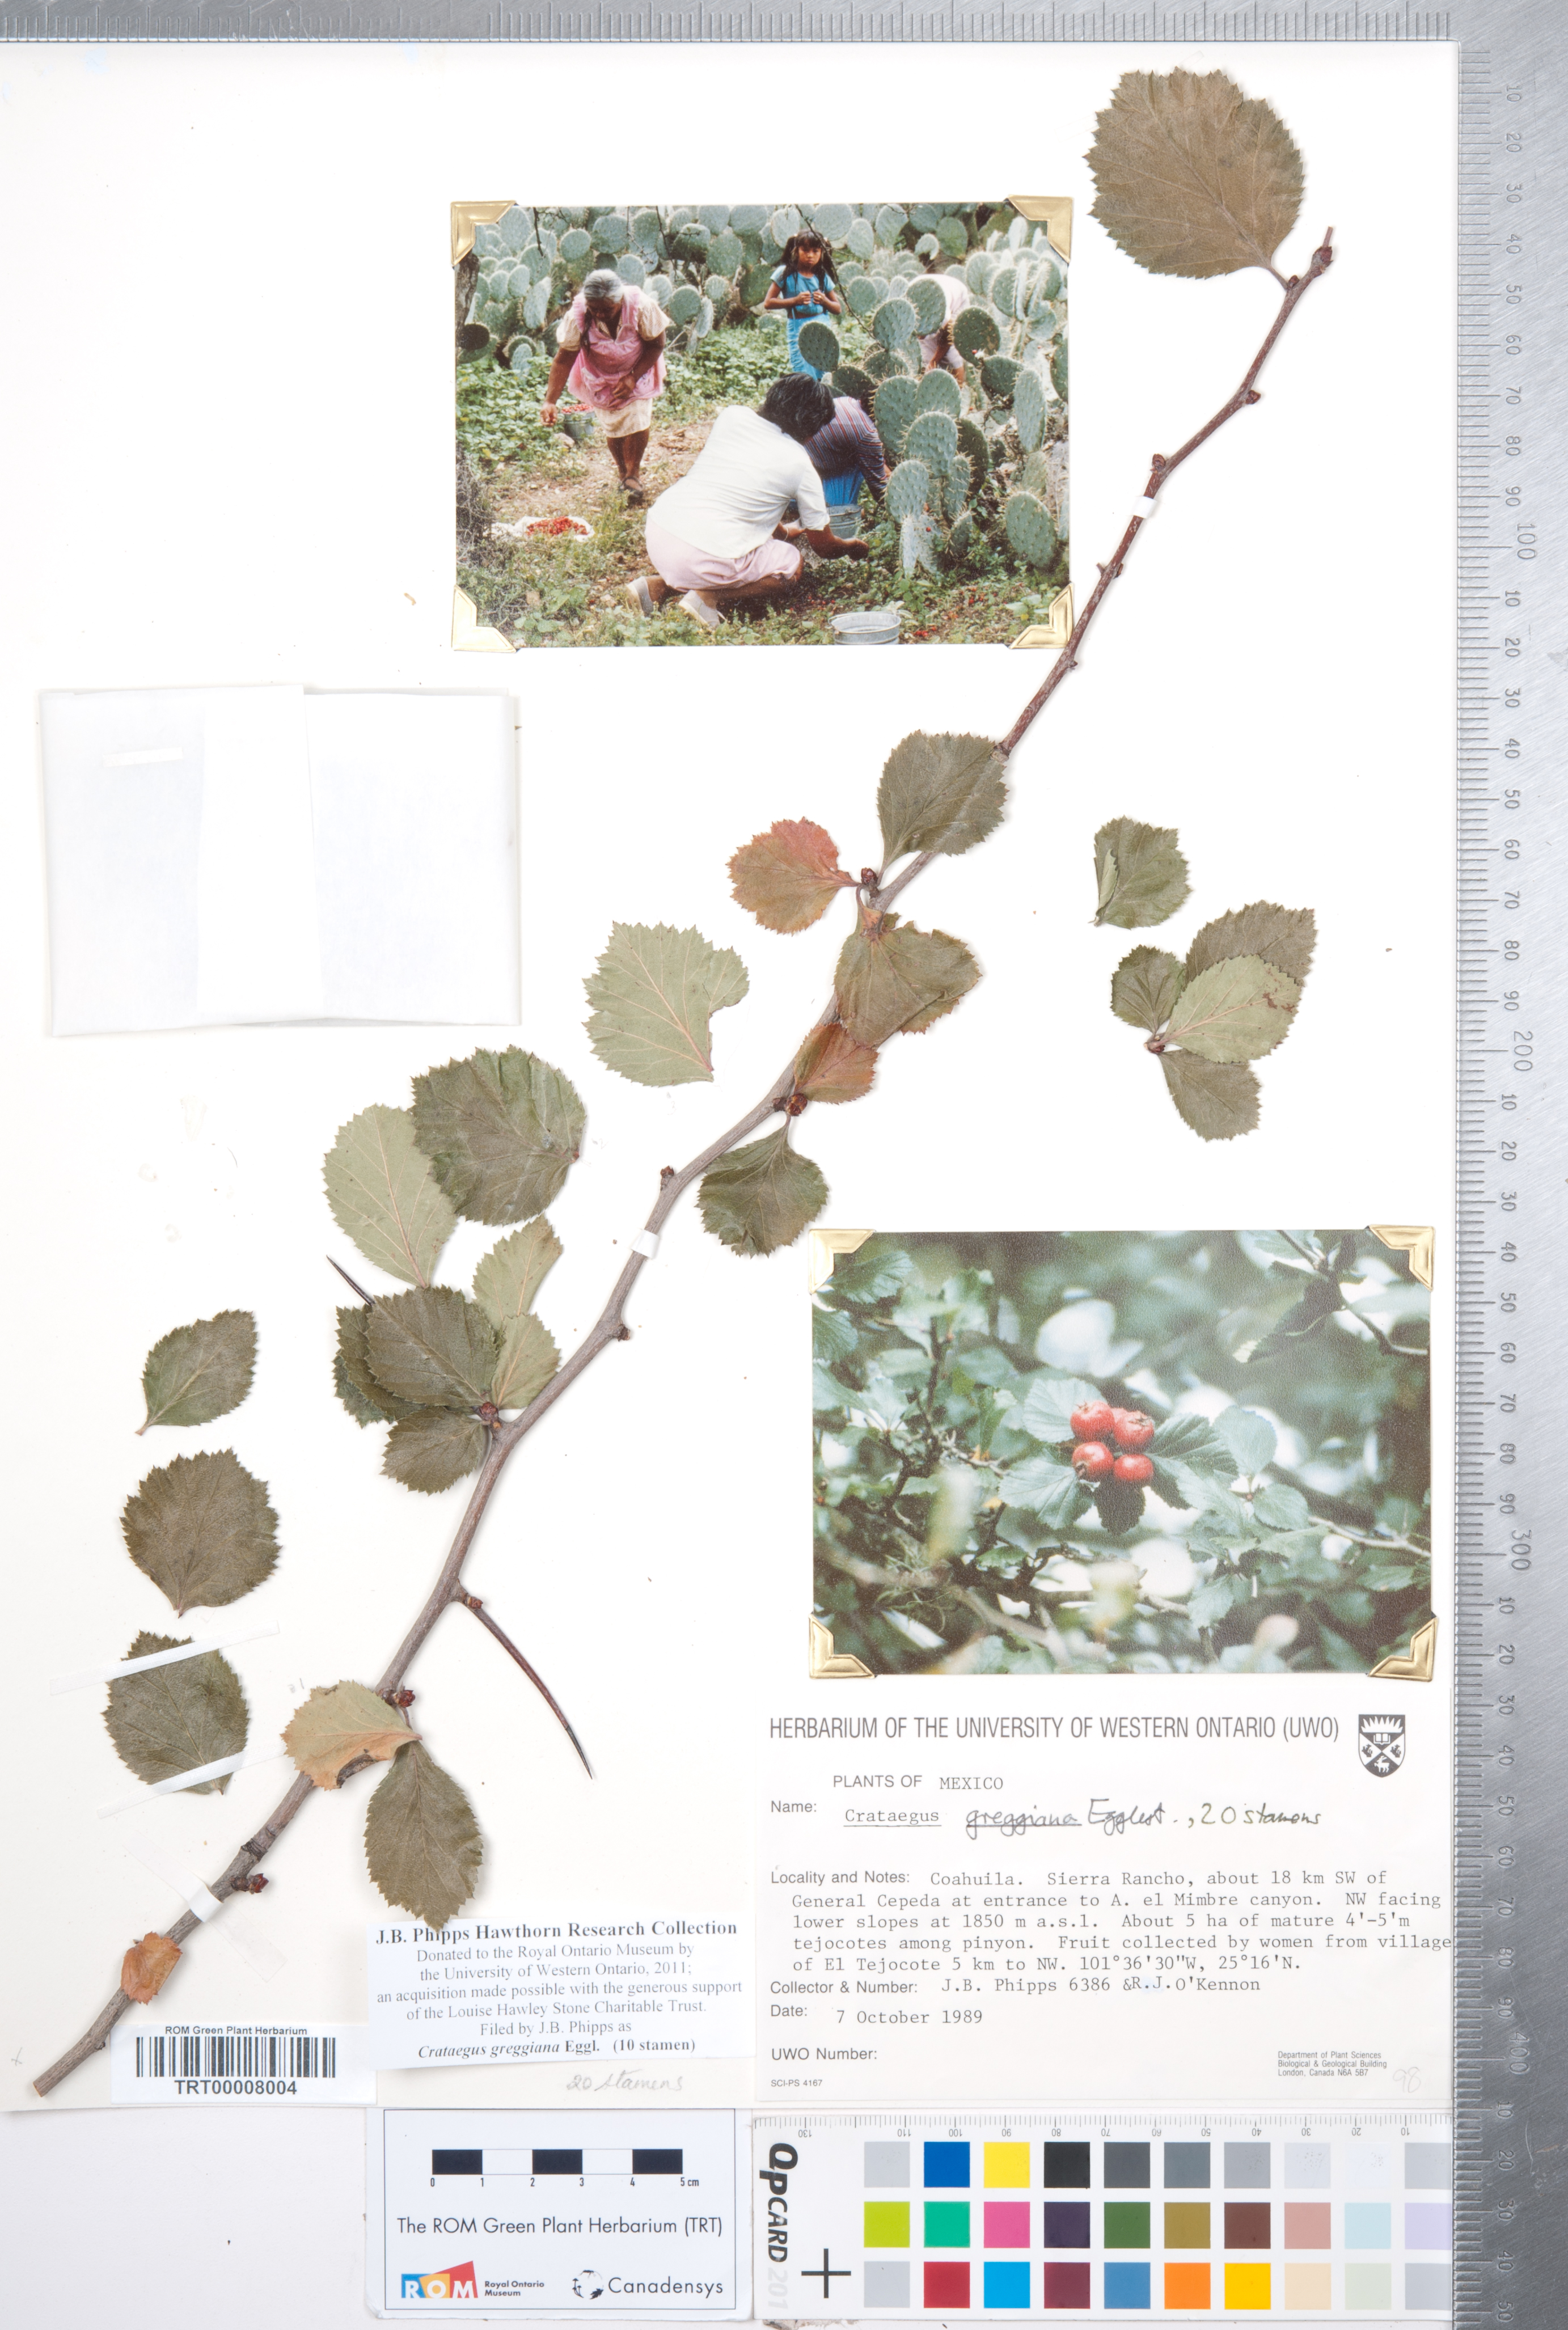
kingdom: Plantae
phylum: Tracheophyta
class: Magnoliopsida
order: Rosales
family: Rosaceae
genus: Crataegus
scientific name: Crataegus greggiana
